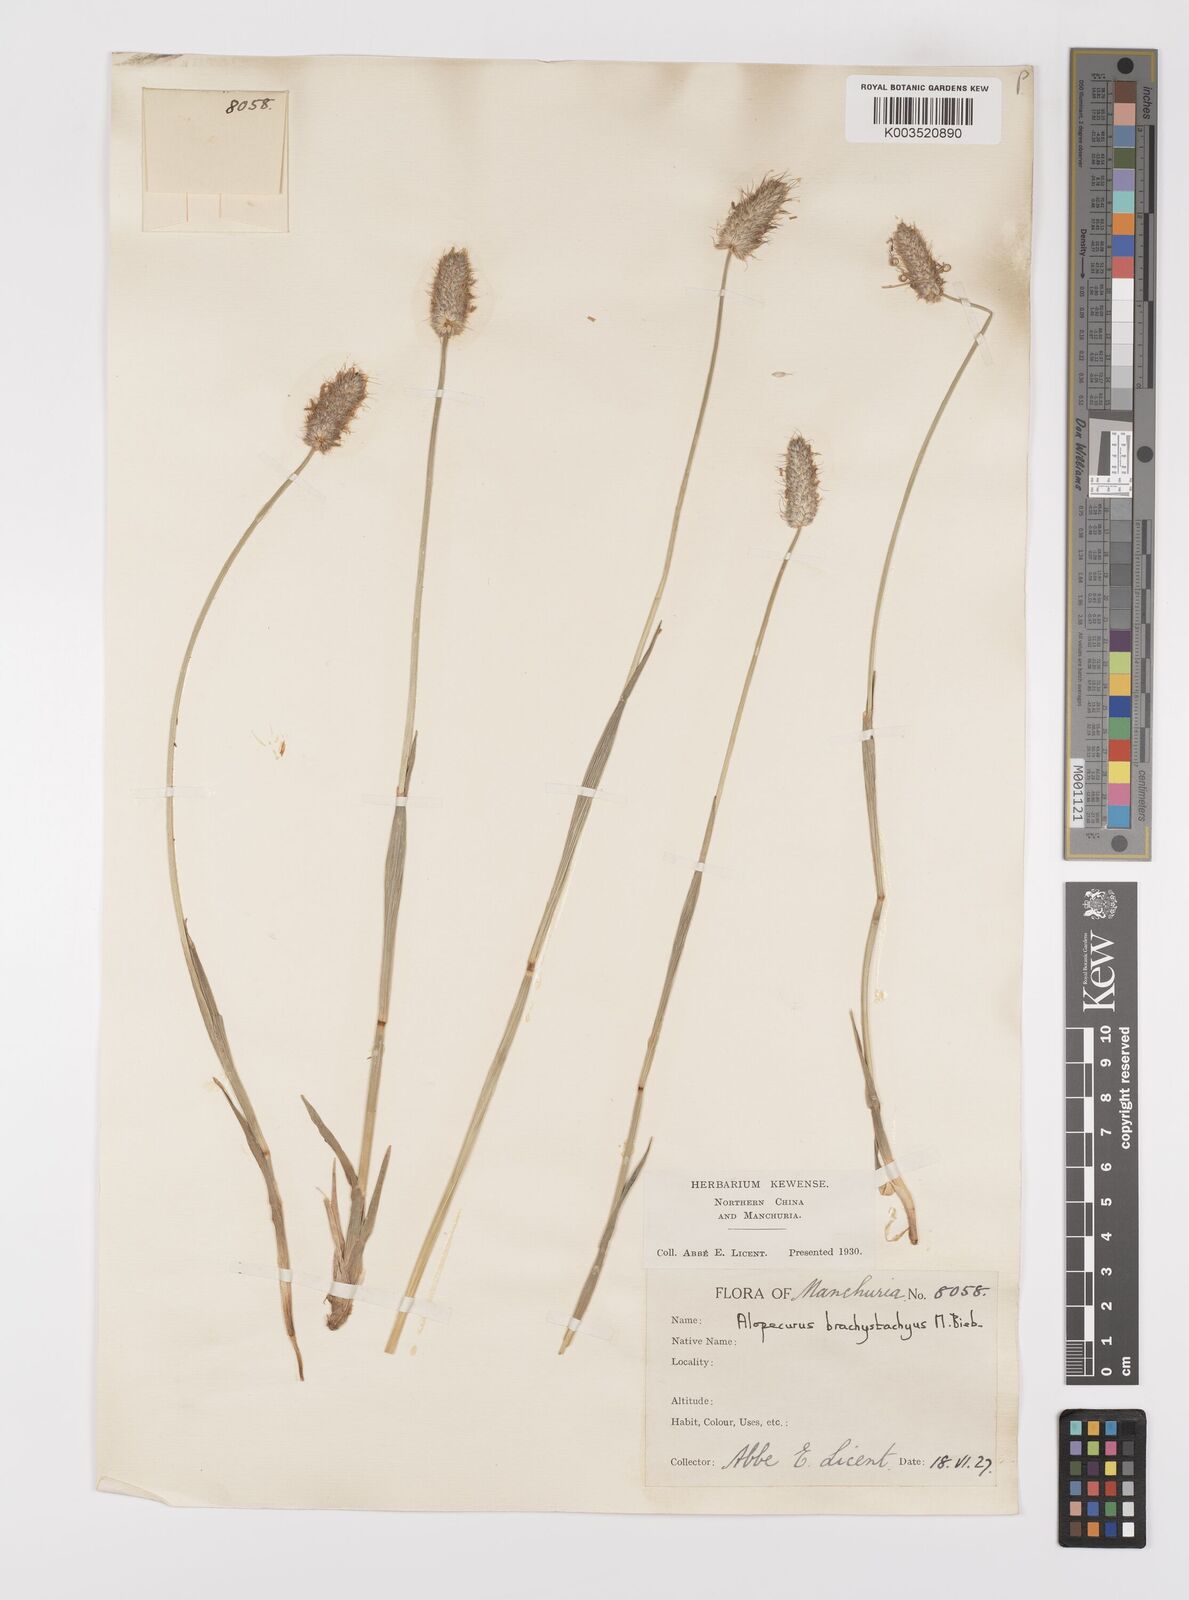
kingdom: Plantae
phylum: Tracheophyta
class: Liliopsida
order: Poales
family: Poaceae
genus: Alopecurus
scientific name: Alopecurus brachystachyus
